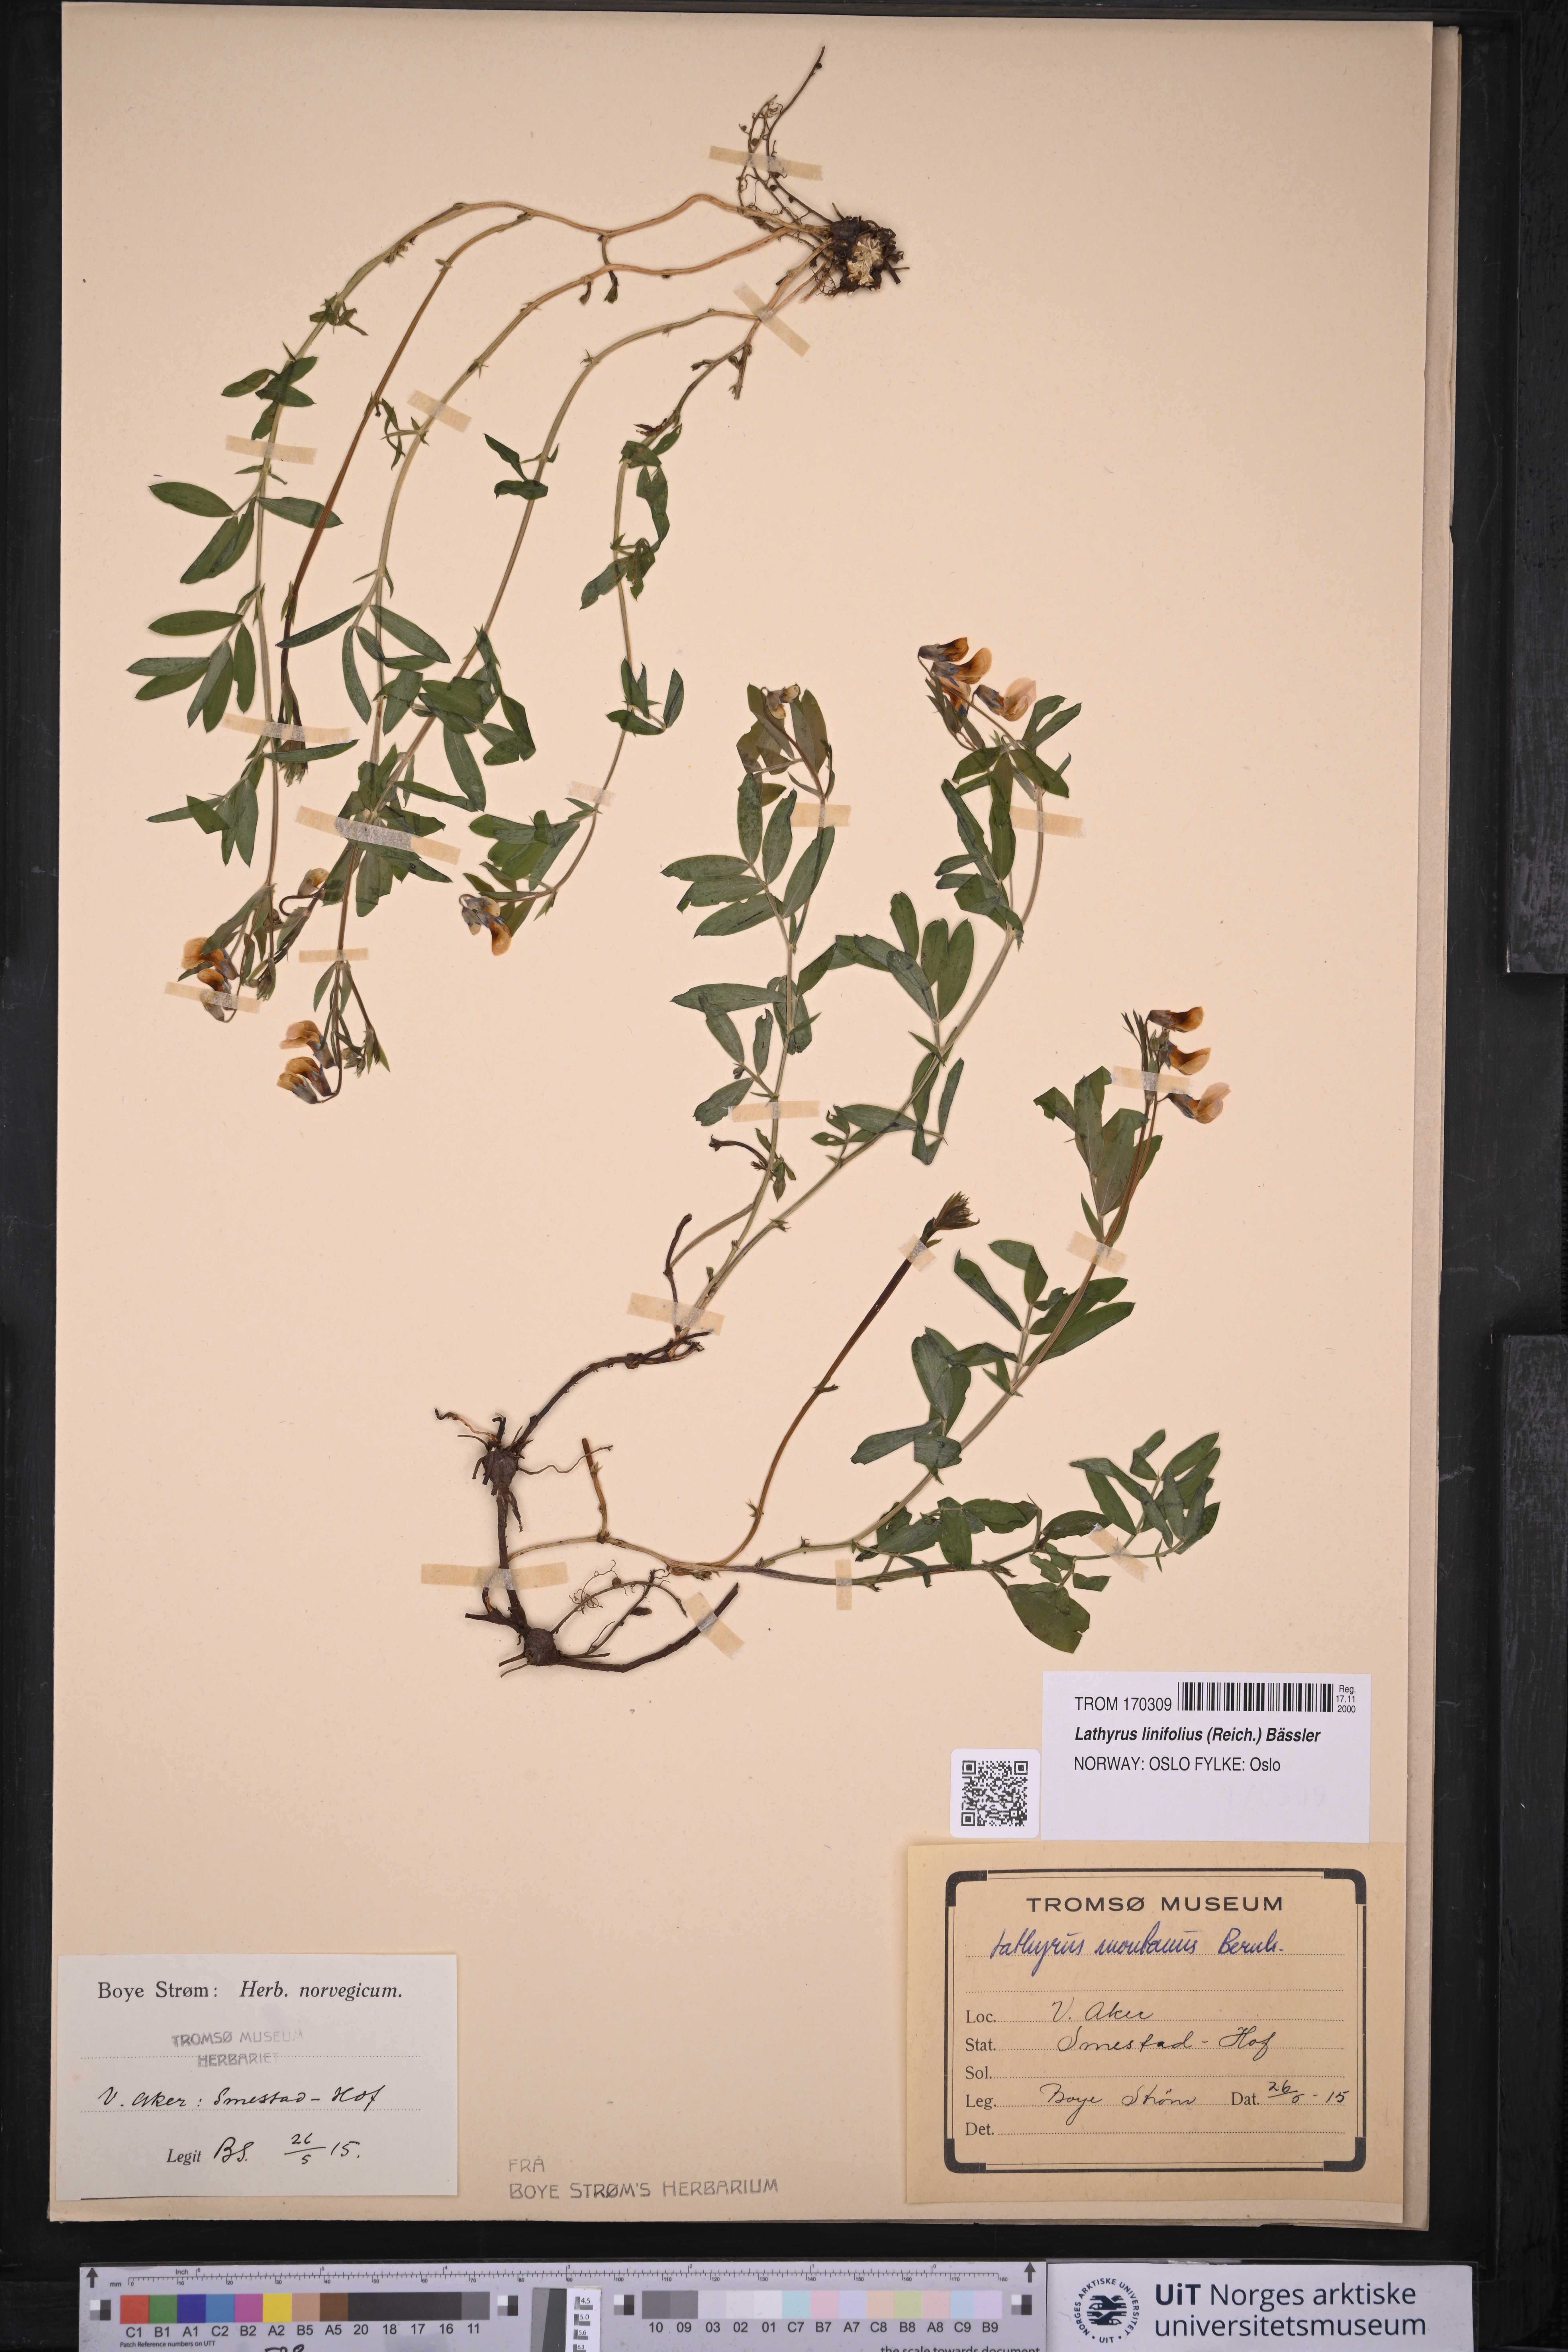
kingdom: Plantae
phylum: Tracheophyta
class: Magnoliopsida
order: Fabales
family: Fabaceae
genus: Lathyrus
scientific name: Lathyrus linifolius
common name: Bitter-vetch
